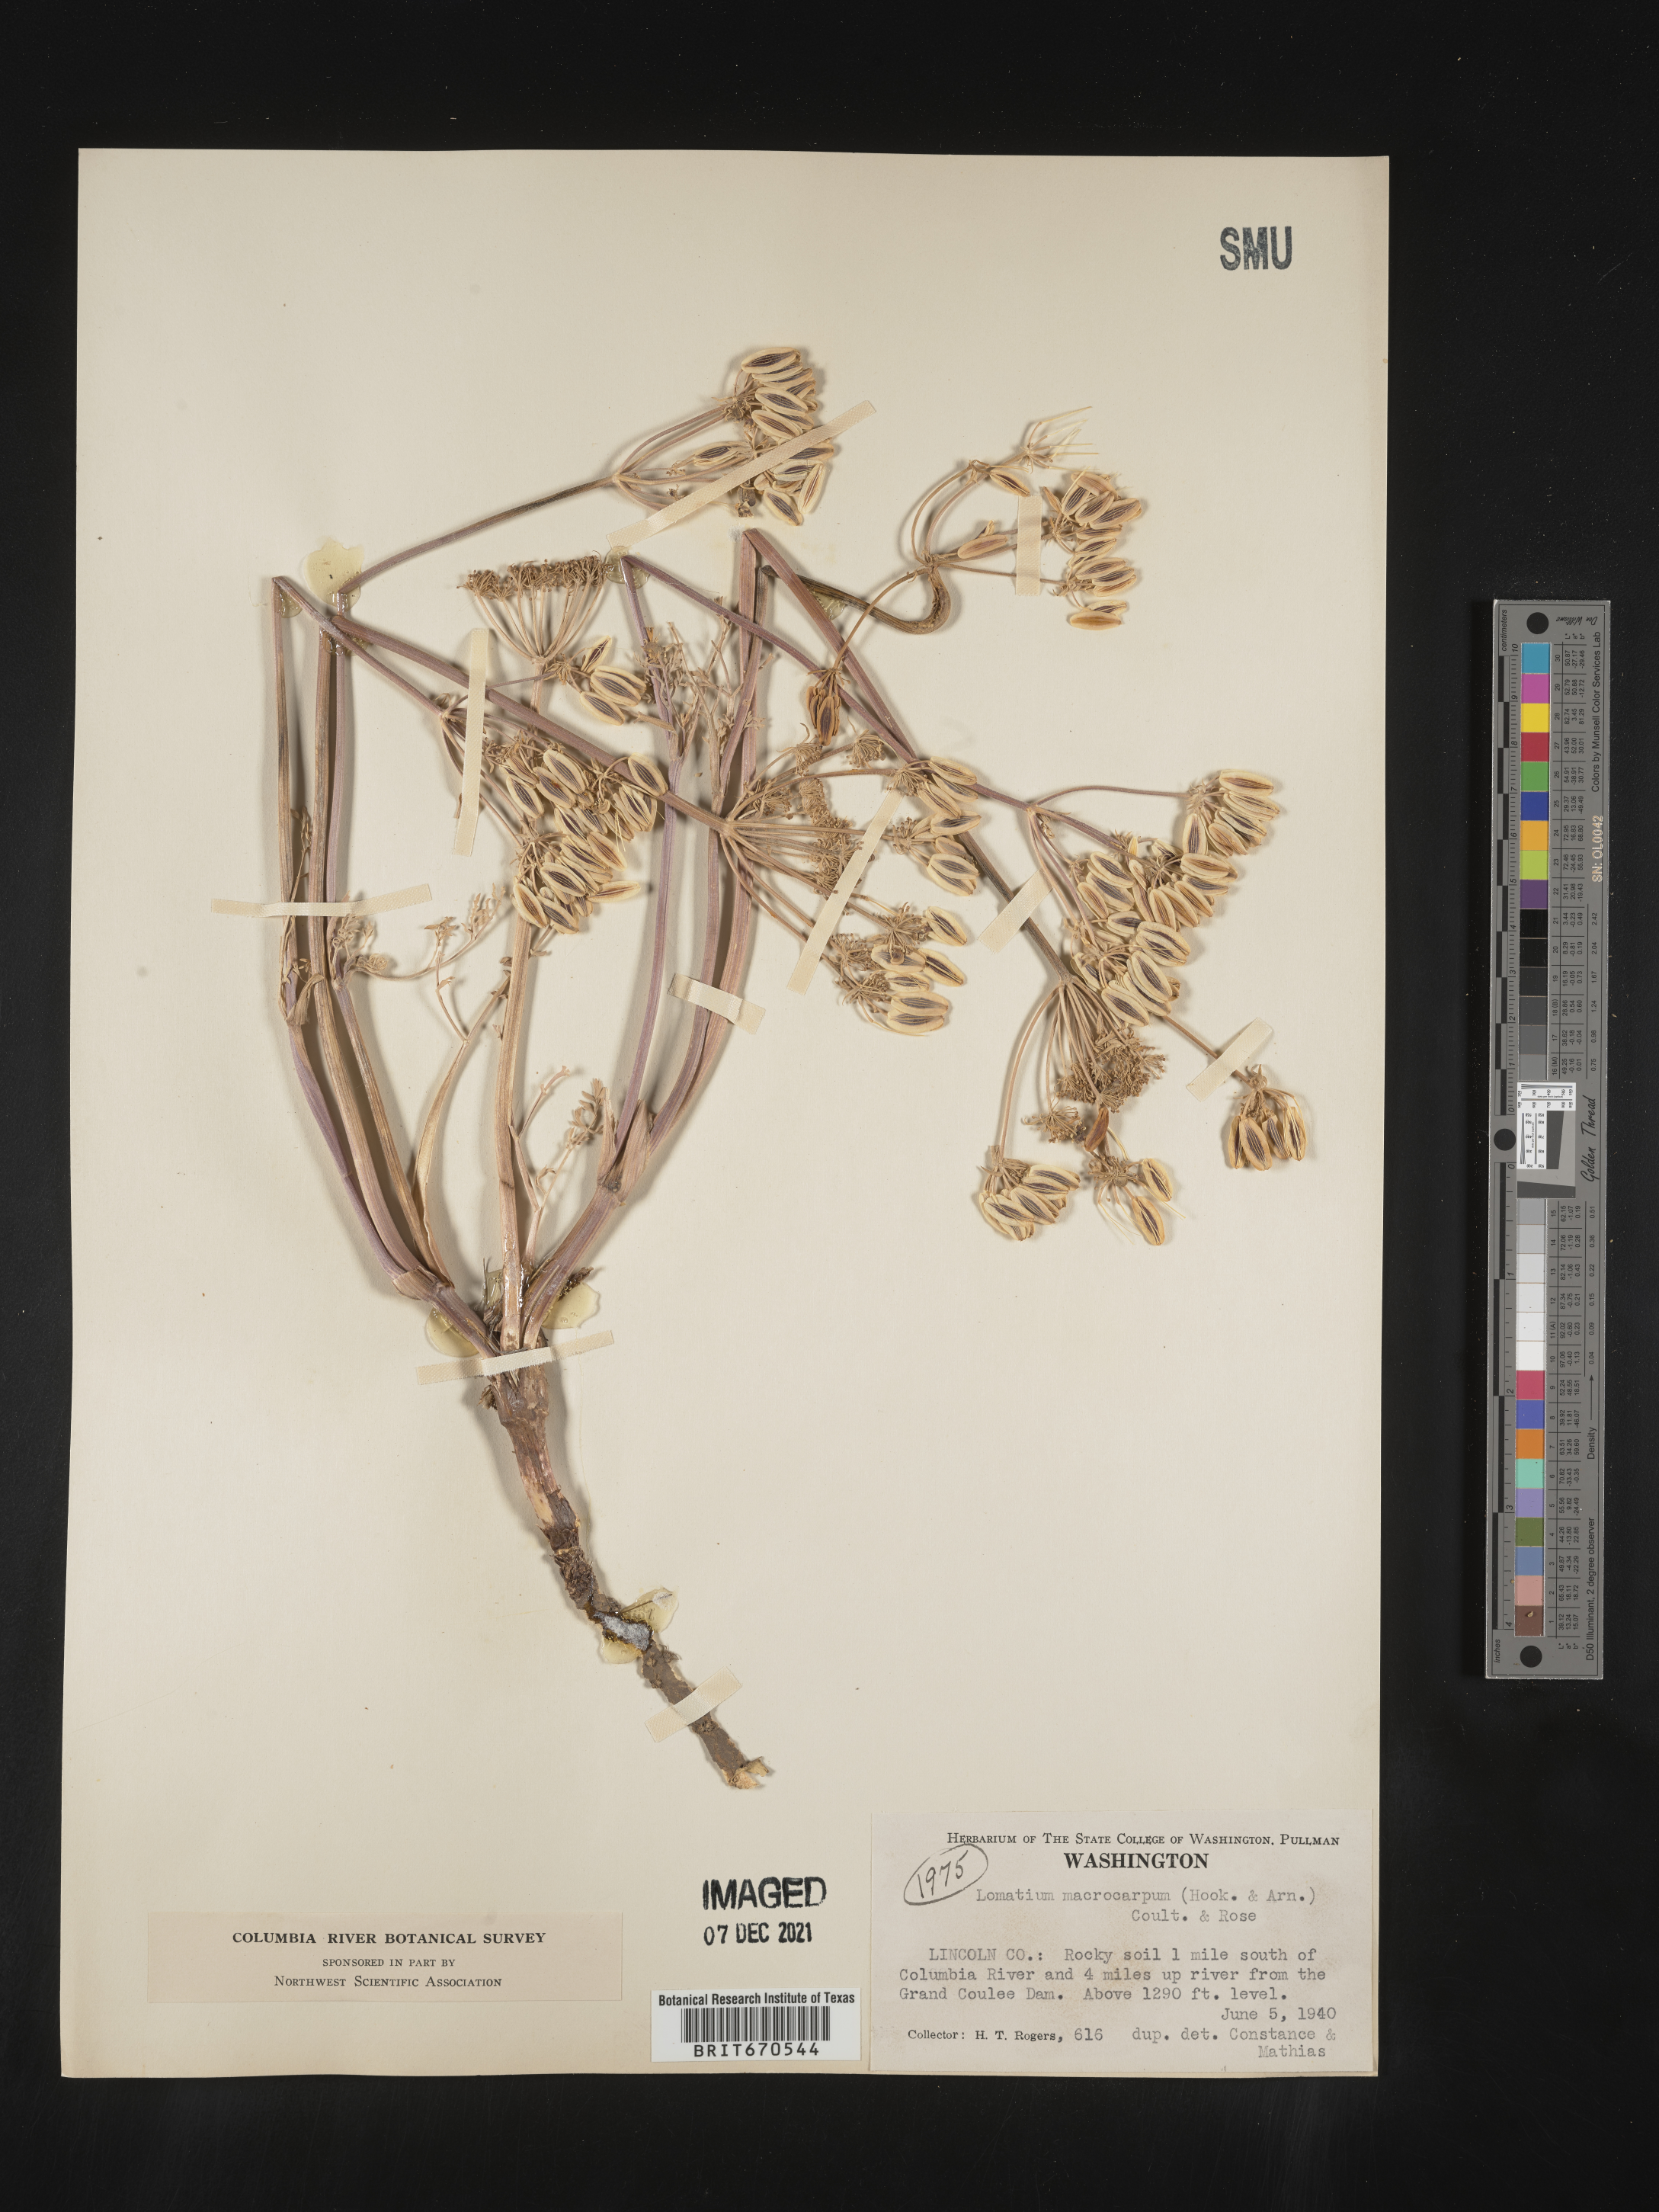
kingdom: Plantae
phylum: Tracheophyta
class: Magnoliopsida
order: Apiales
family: Apiaceae
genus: Lomatium
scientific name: Lomatium macrocarpum
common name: Big-seed biscuitroot
